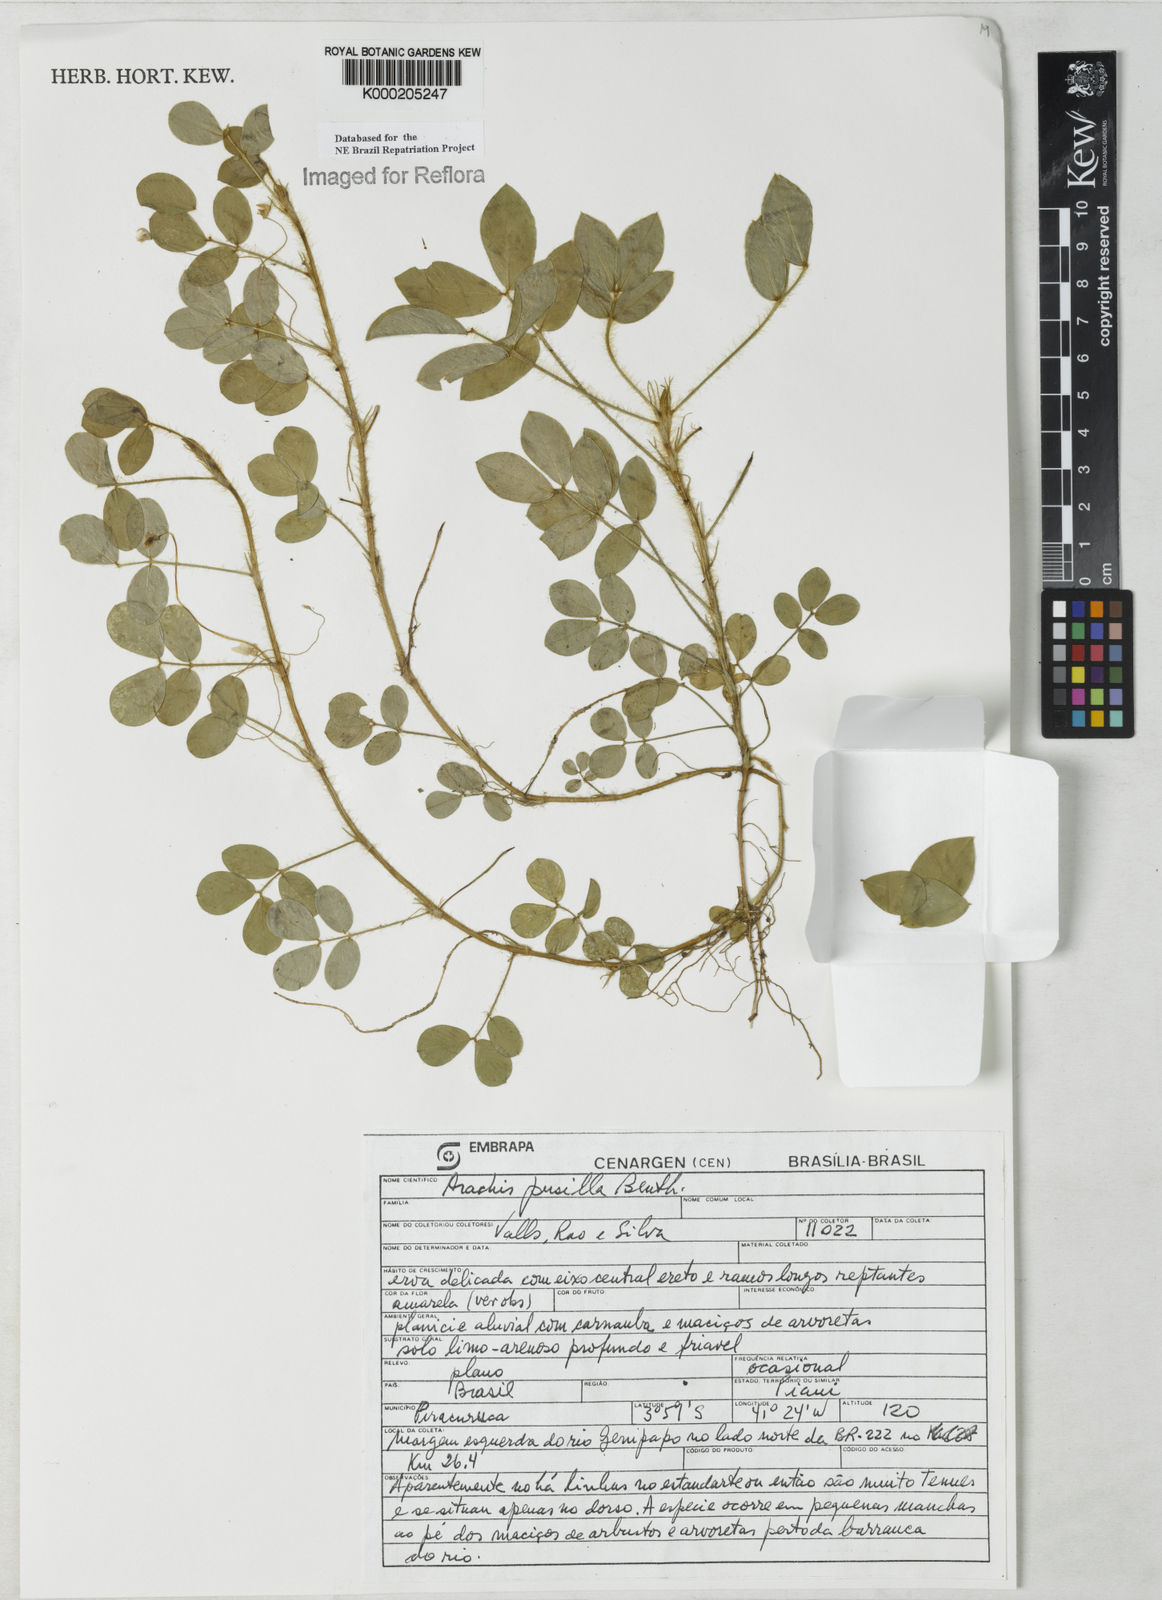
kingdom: Plantae
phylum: Tracheophyta
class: Magnoliopsida
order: Fabales
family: Fabaceae
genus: Arachis
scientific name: Arachis pusilla
